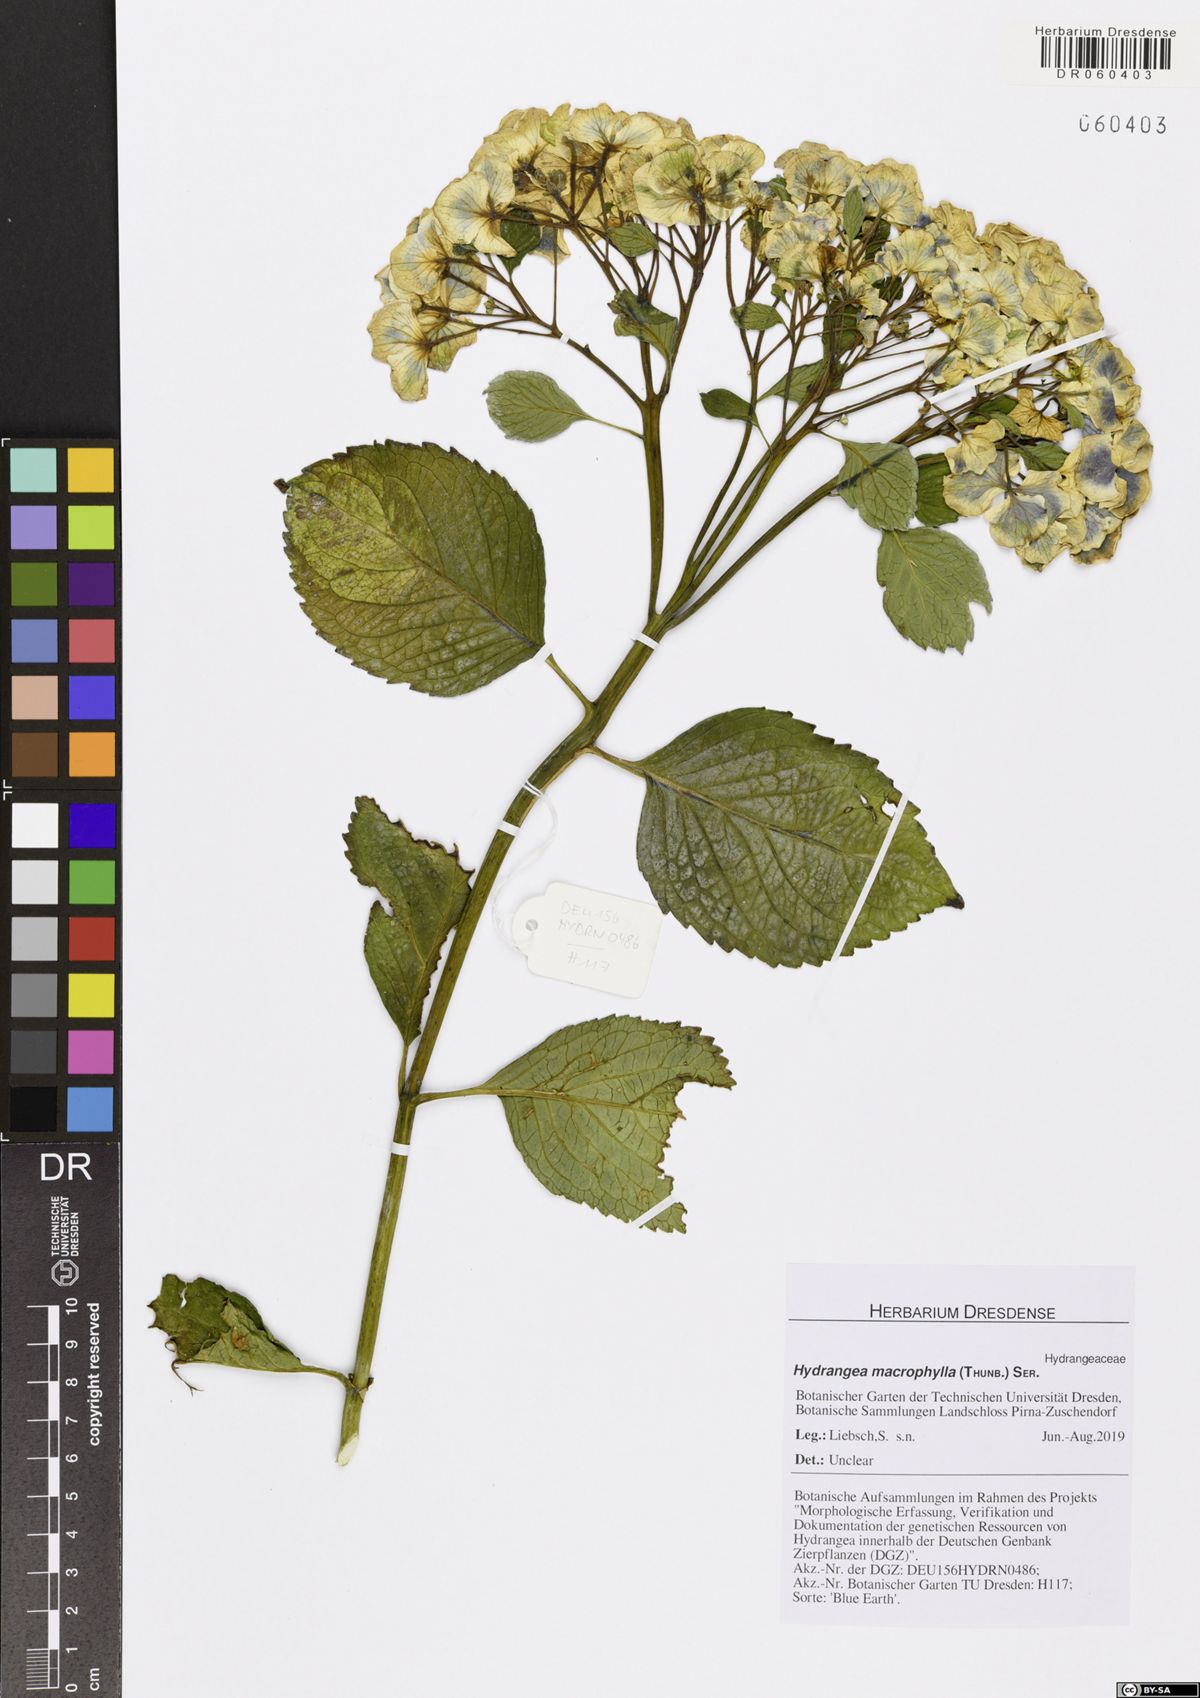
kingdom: Plantae
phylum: Tracheophyta
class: Magnoliopsida
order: Cornales
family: Hydrangeaceae
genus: Hydrangea
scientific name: Hydrangea macrophylla
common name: Hydrangea
